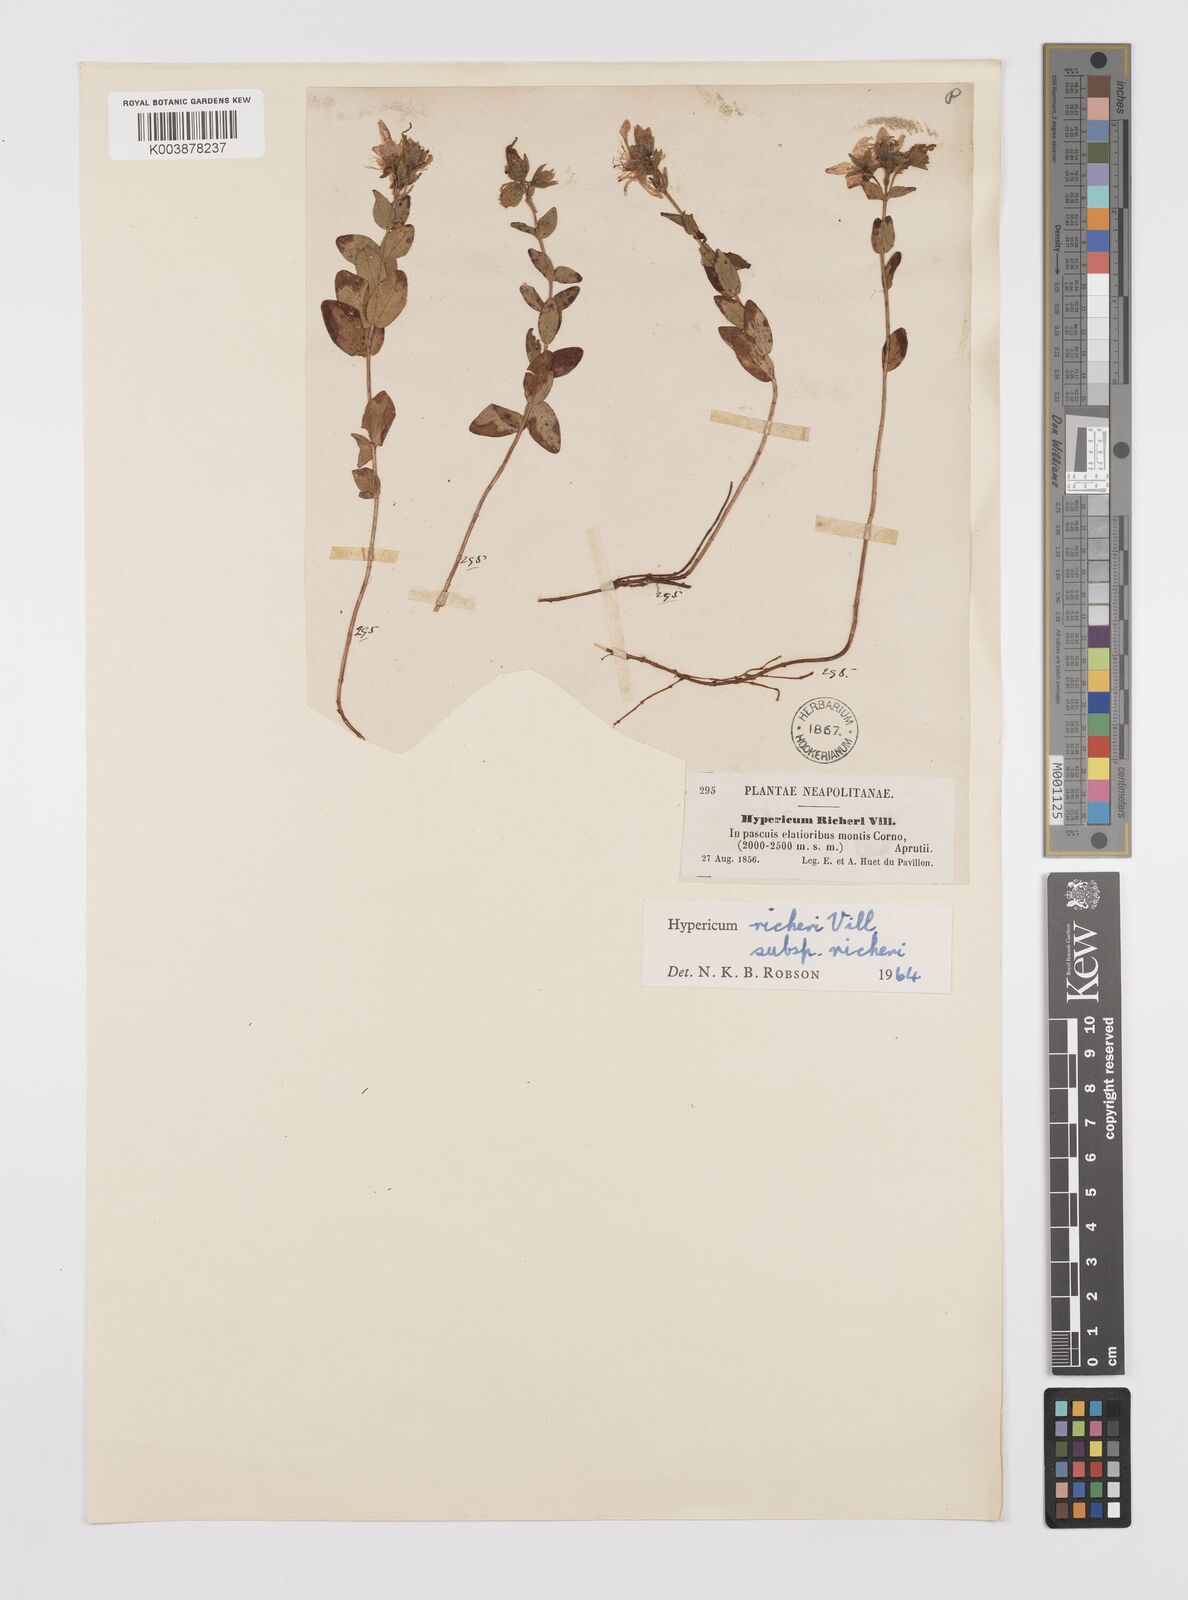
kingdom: Plantae
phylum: Tracheophyta
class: Magnoliopsida
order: Malpighiales
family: Hypericaceae
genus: Hypericum
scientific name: Hypericum richeri
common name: Alpine st john's-wort
